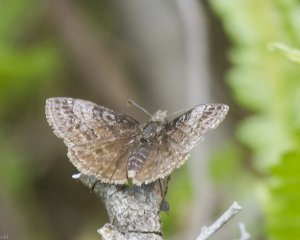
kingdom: Animalia
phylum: Arthropoda
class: Insecta
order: Lepidoptera
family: Hesperiidae
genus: Erynnis
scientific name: Erynnis icelus
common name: Dreamy Duskywing
